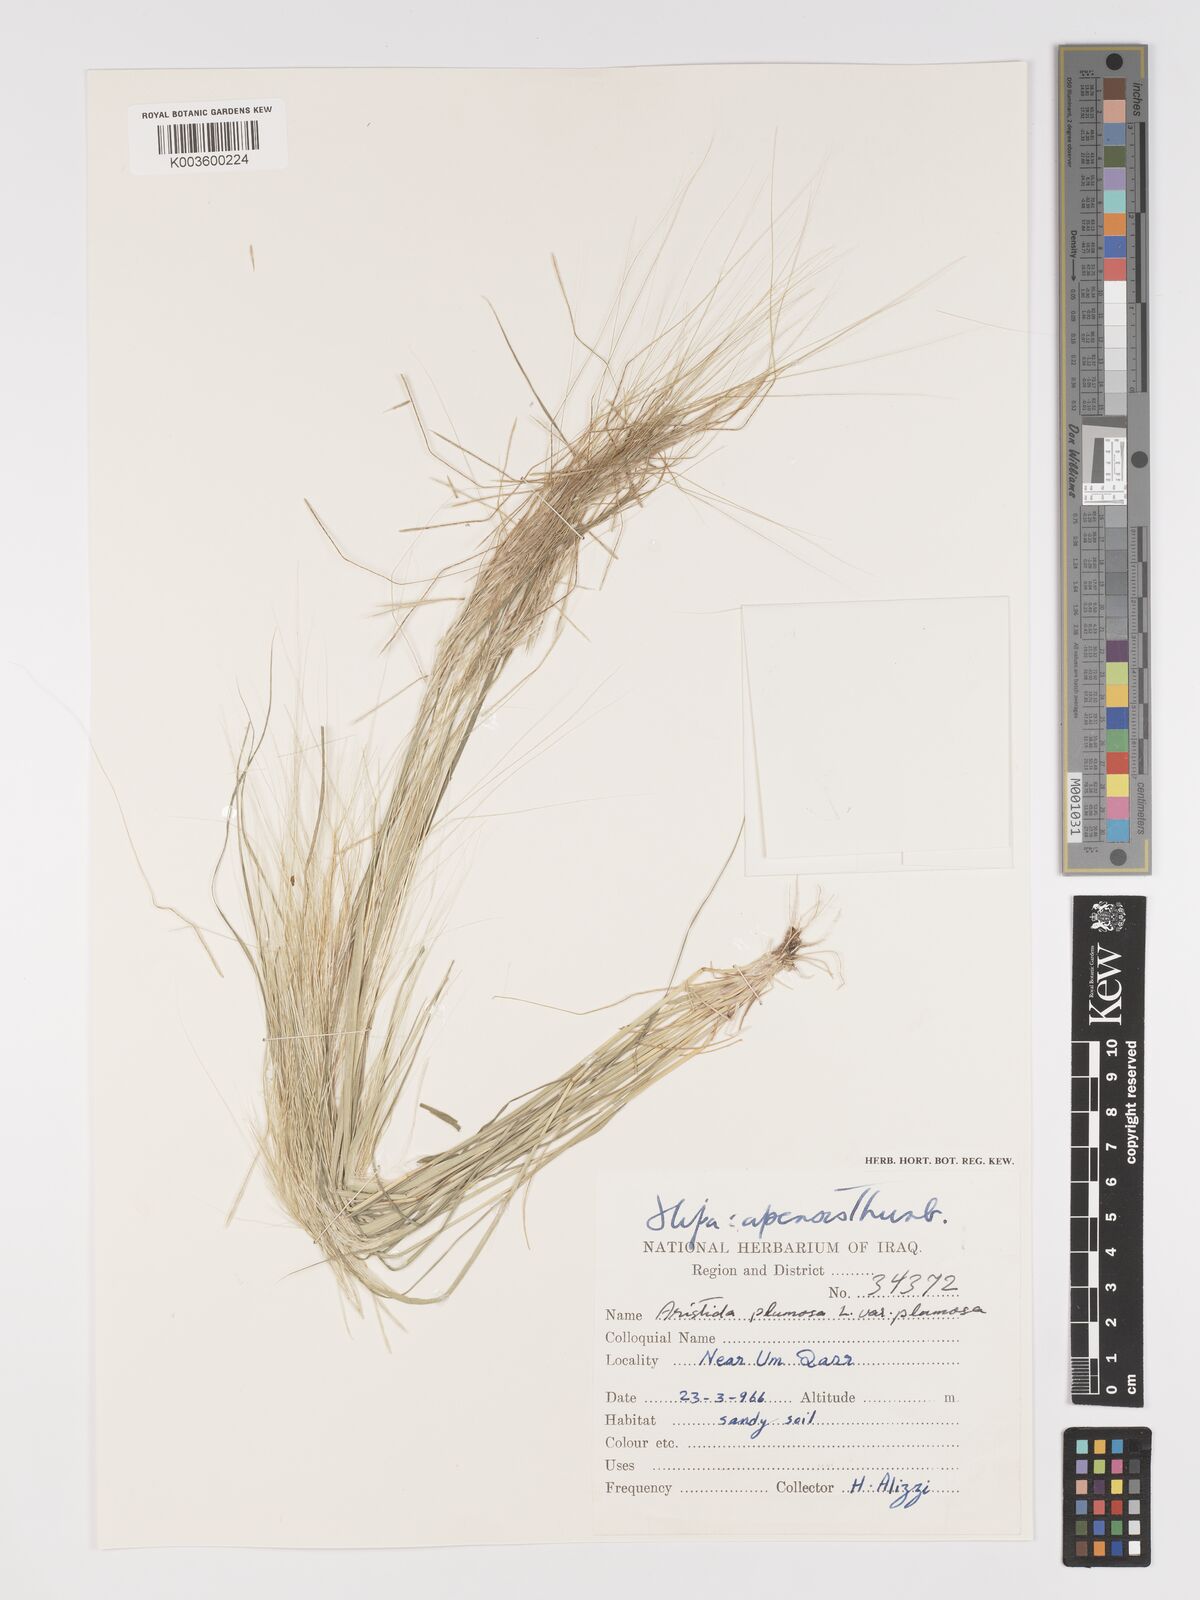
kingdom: Plantae
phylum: Tracheophyta
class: Liliopsida
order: Poales
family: Poaceae
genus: Stipellula
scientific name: Stipellula capensis
